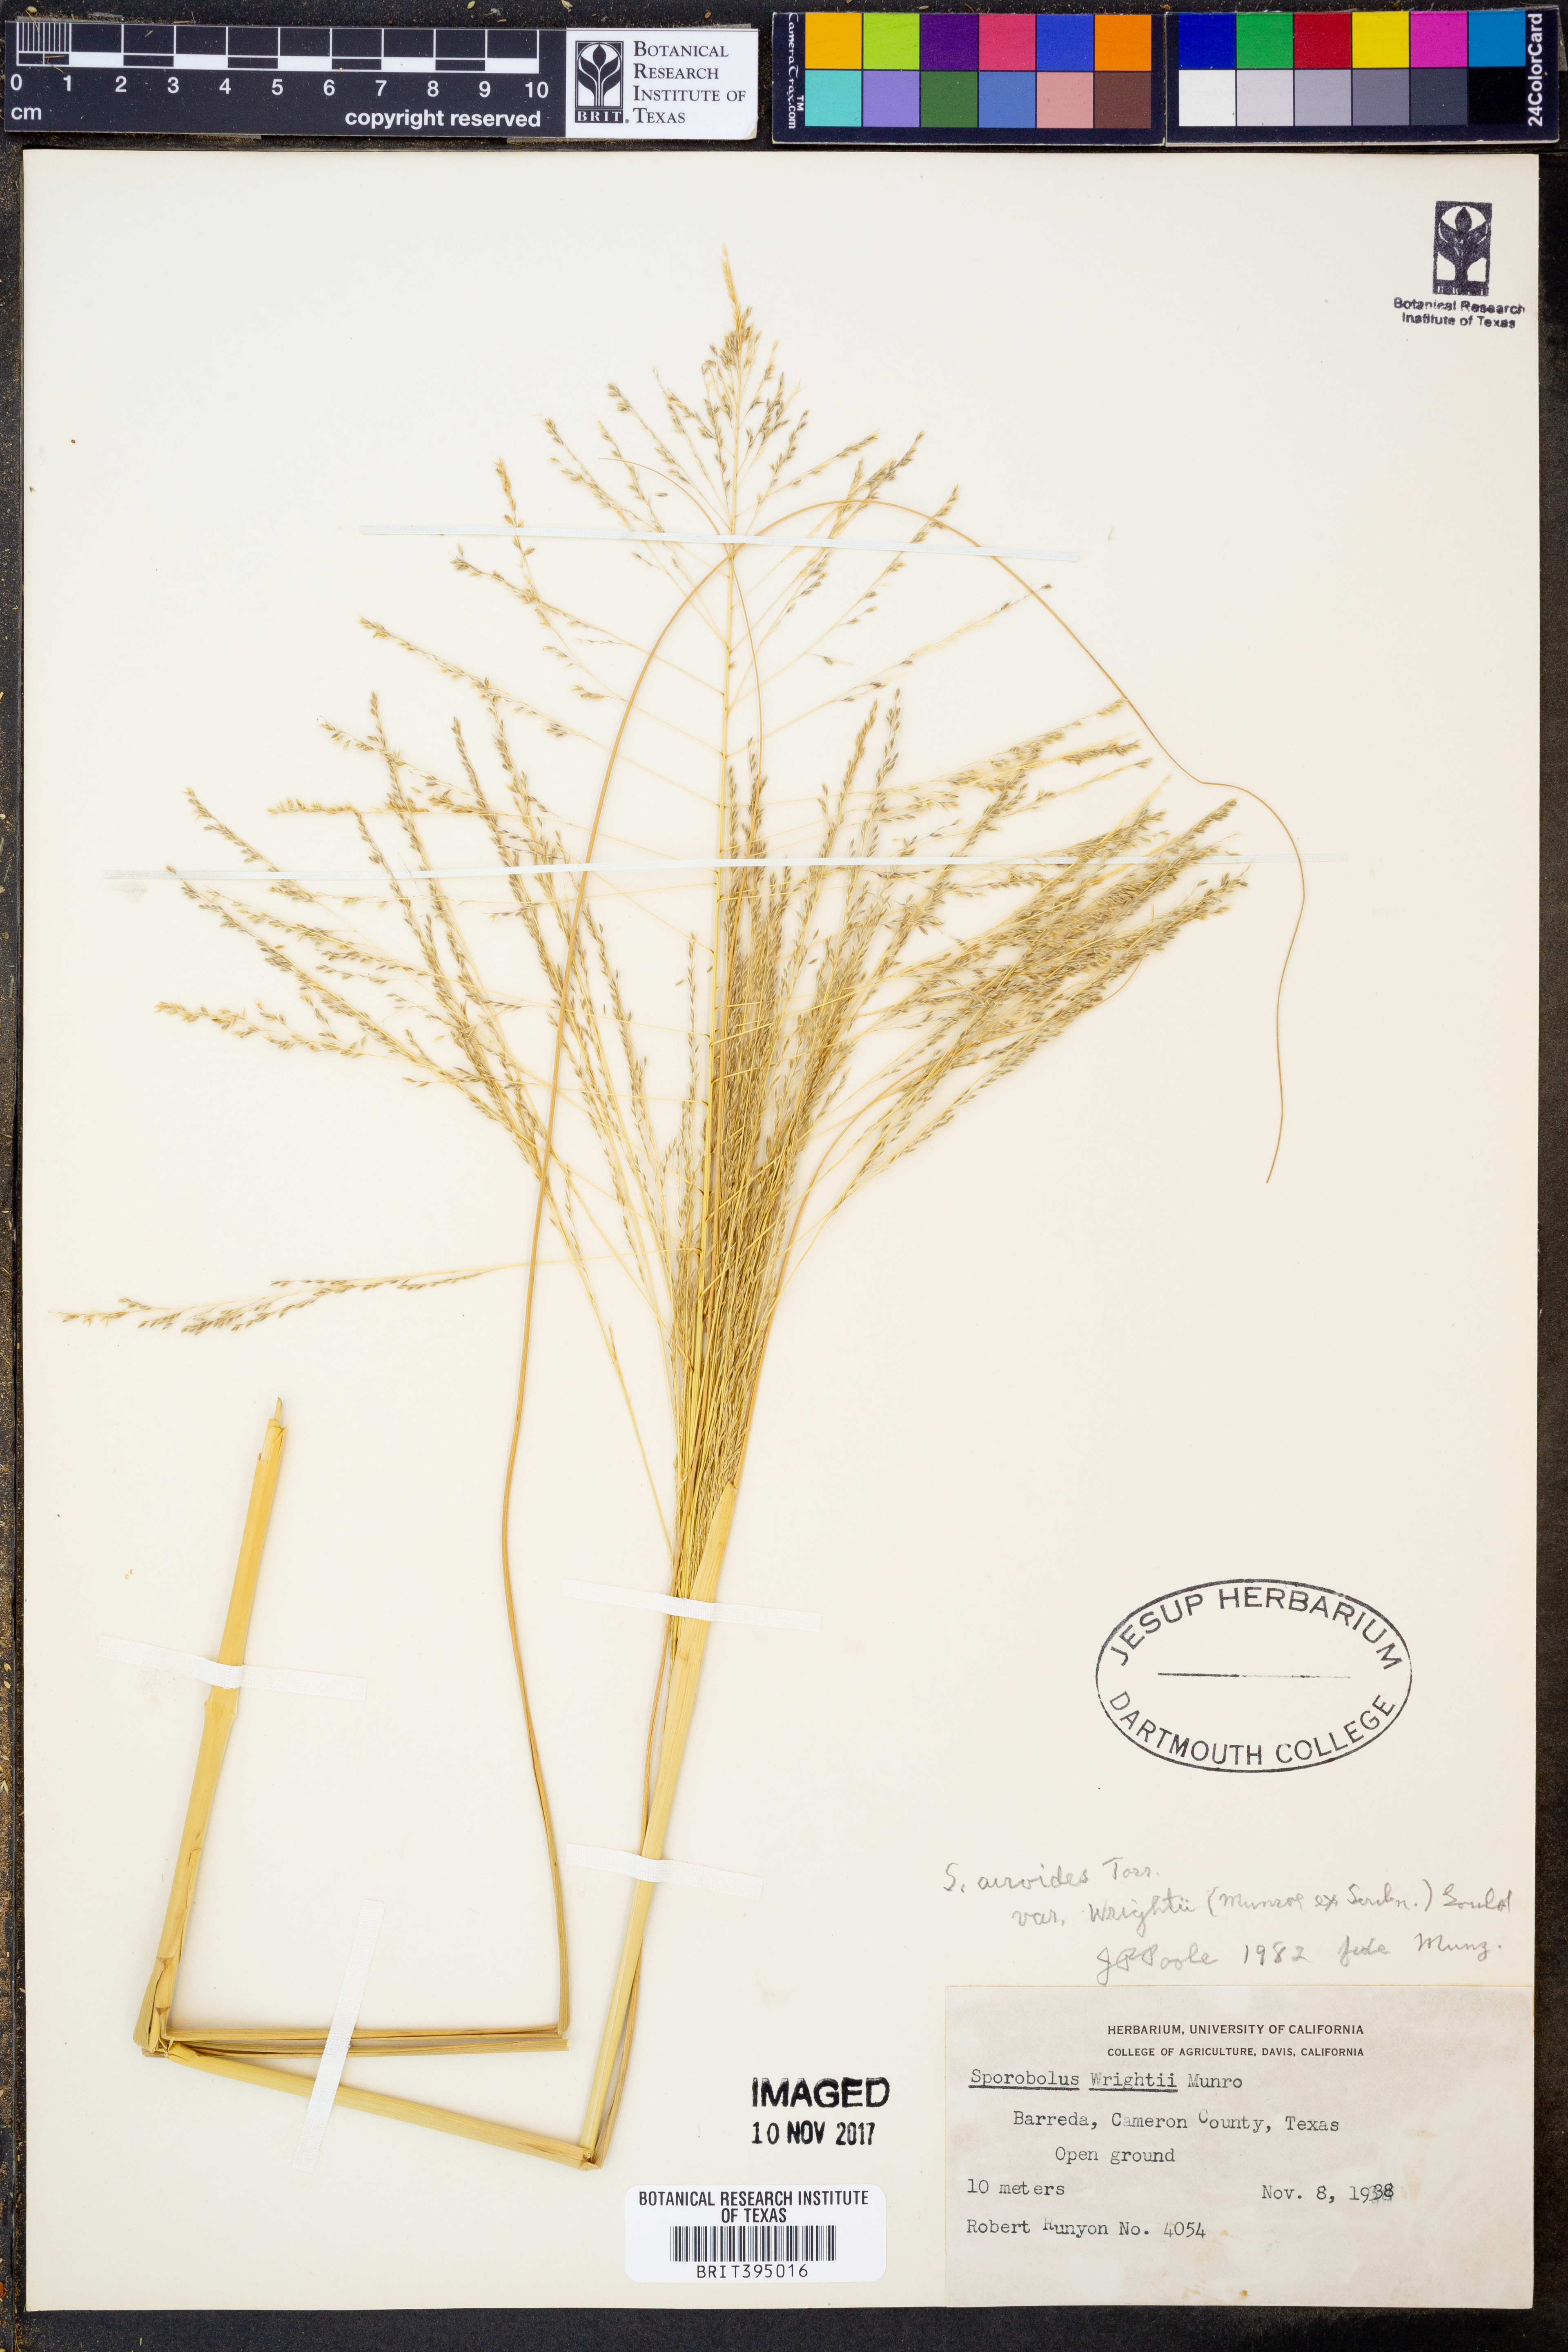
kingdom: Plantae
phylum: Tracheophyta
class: Liliopsida
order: Poales
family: Poaceae
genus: Sporobolus
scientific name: Sporobolus wrightii
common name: Big alkali sacaton
